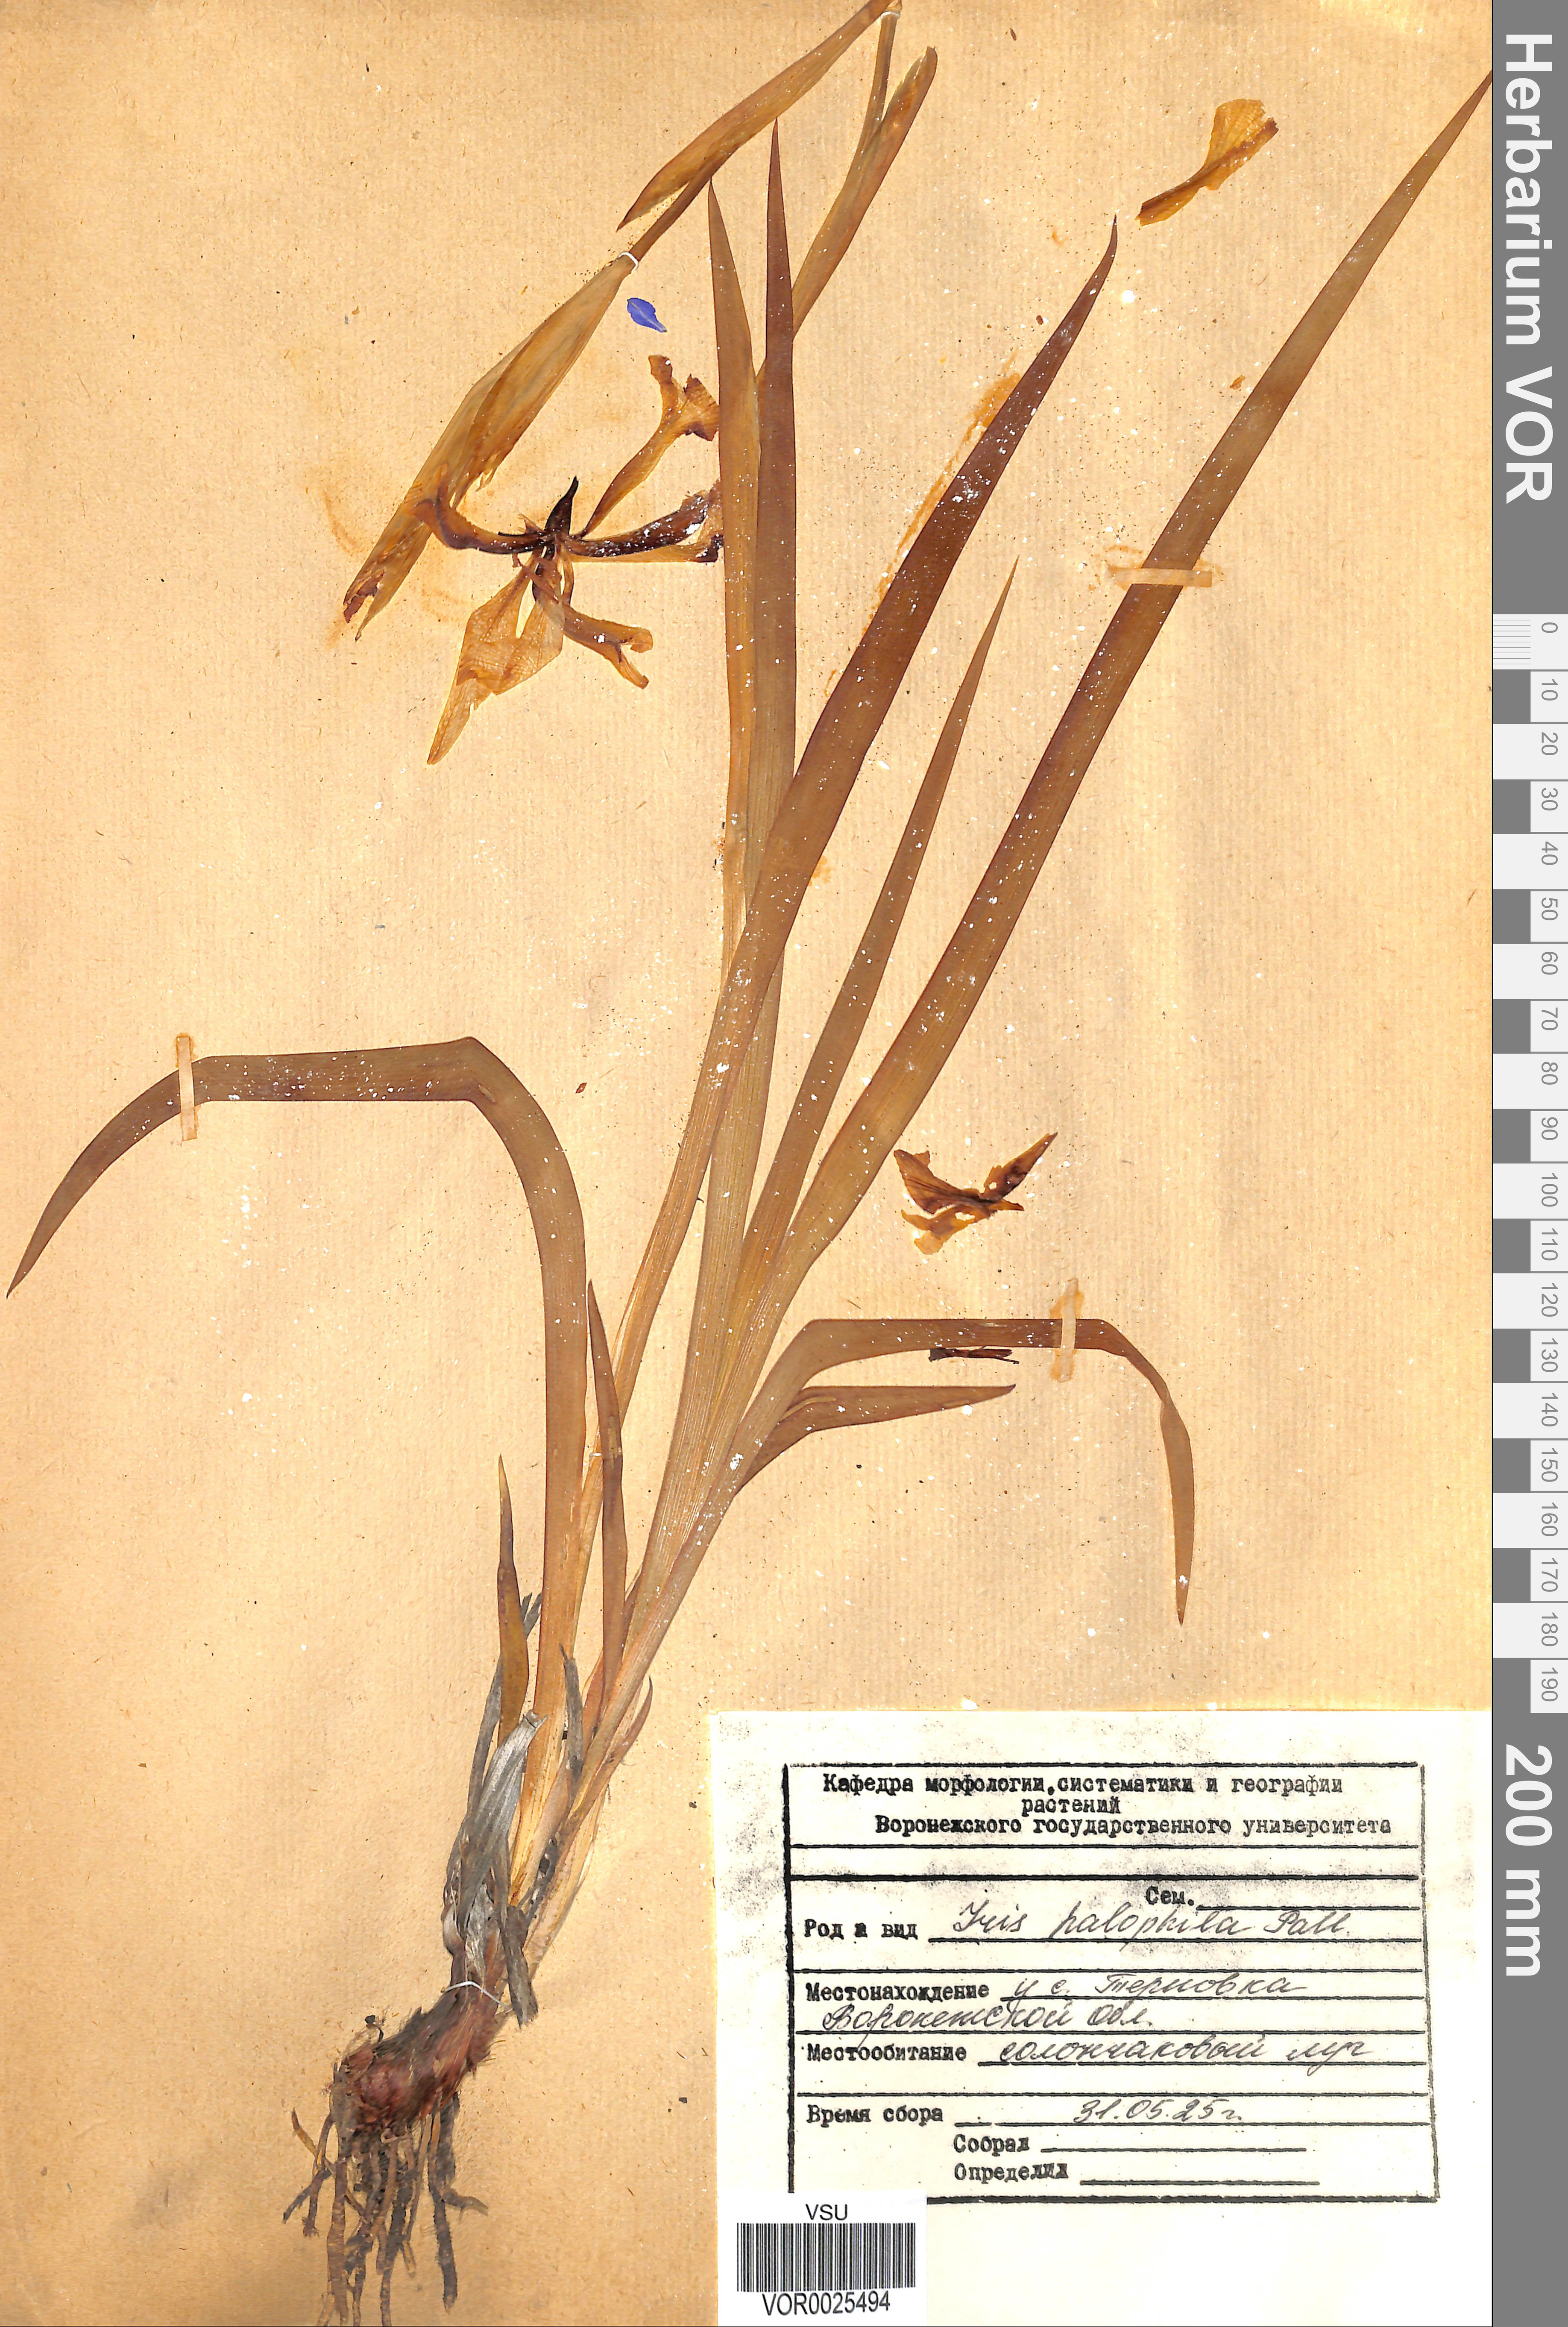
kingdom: Plantae
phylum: Tracheophyta
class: Liliopsida
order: Asparagales
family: Iridaceae
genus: Iris
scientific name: Iris halophila
